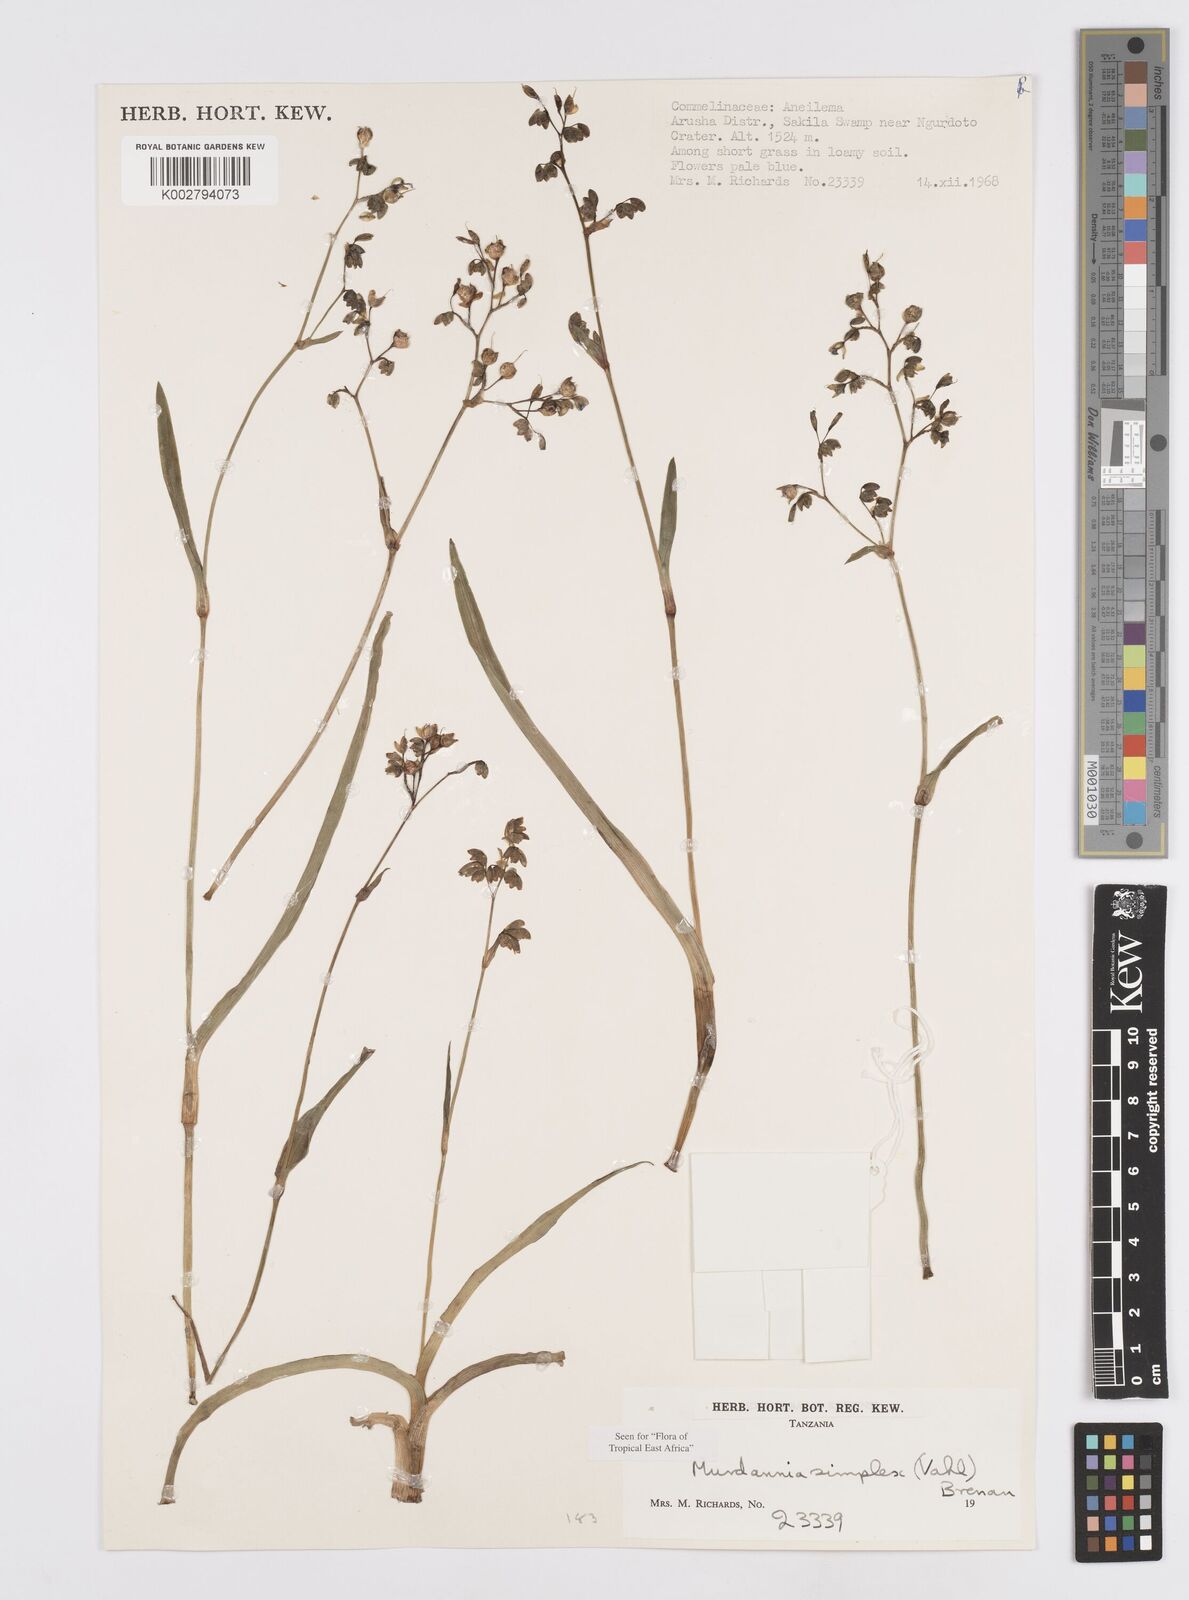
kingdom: Plantae
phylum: Tracheophyta
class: Liliopsida
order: Commelinales
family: Commelinaceae
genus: Murdannia
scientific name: Murdannia simplex
